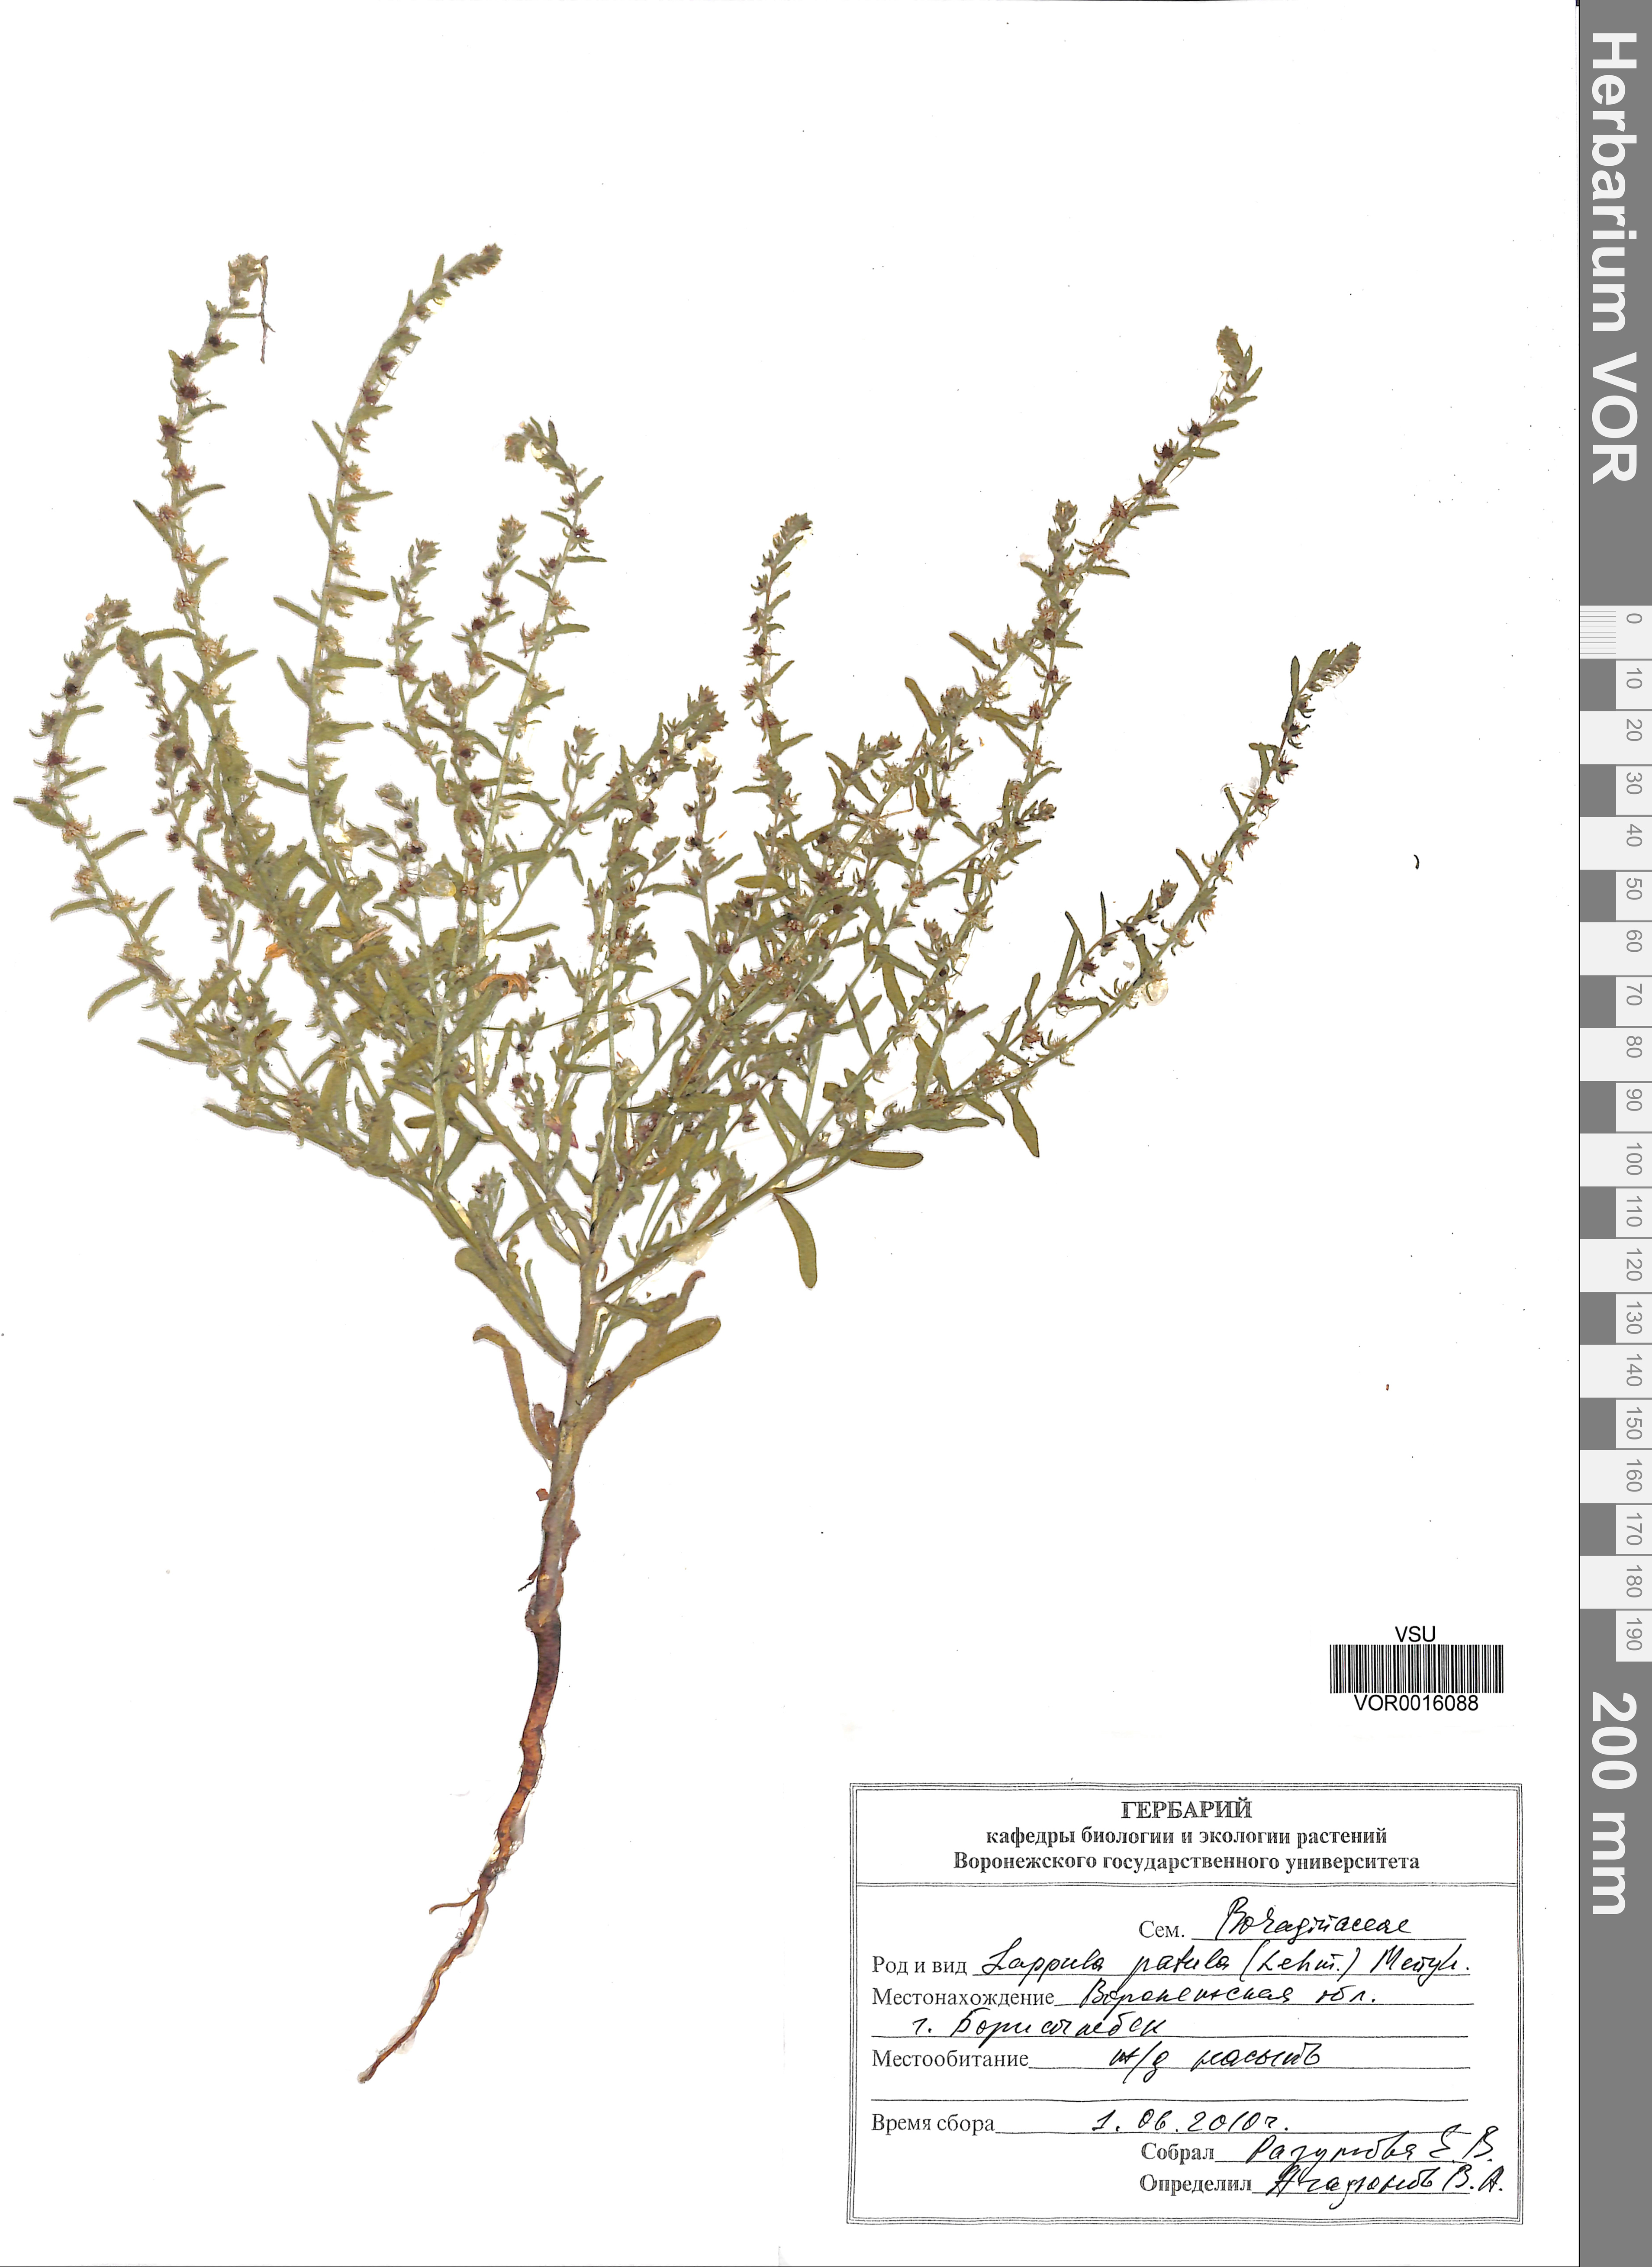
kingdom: Plantae
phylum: Tracheophyta
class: Magnoliopsida
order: Boraginales
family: Boraginaceae
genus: Lappula
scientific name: Lappula patula
